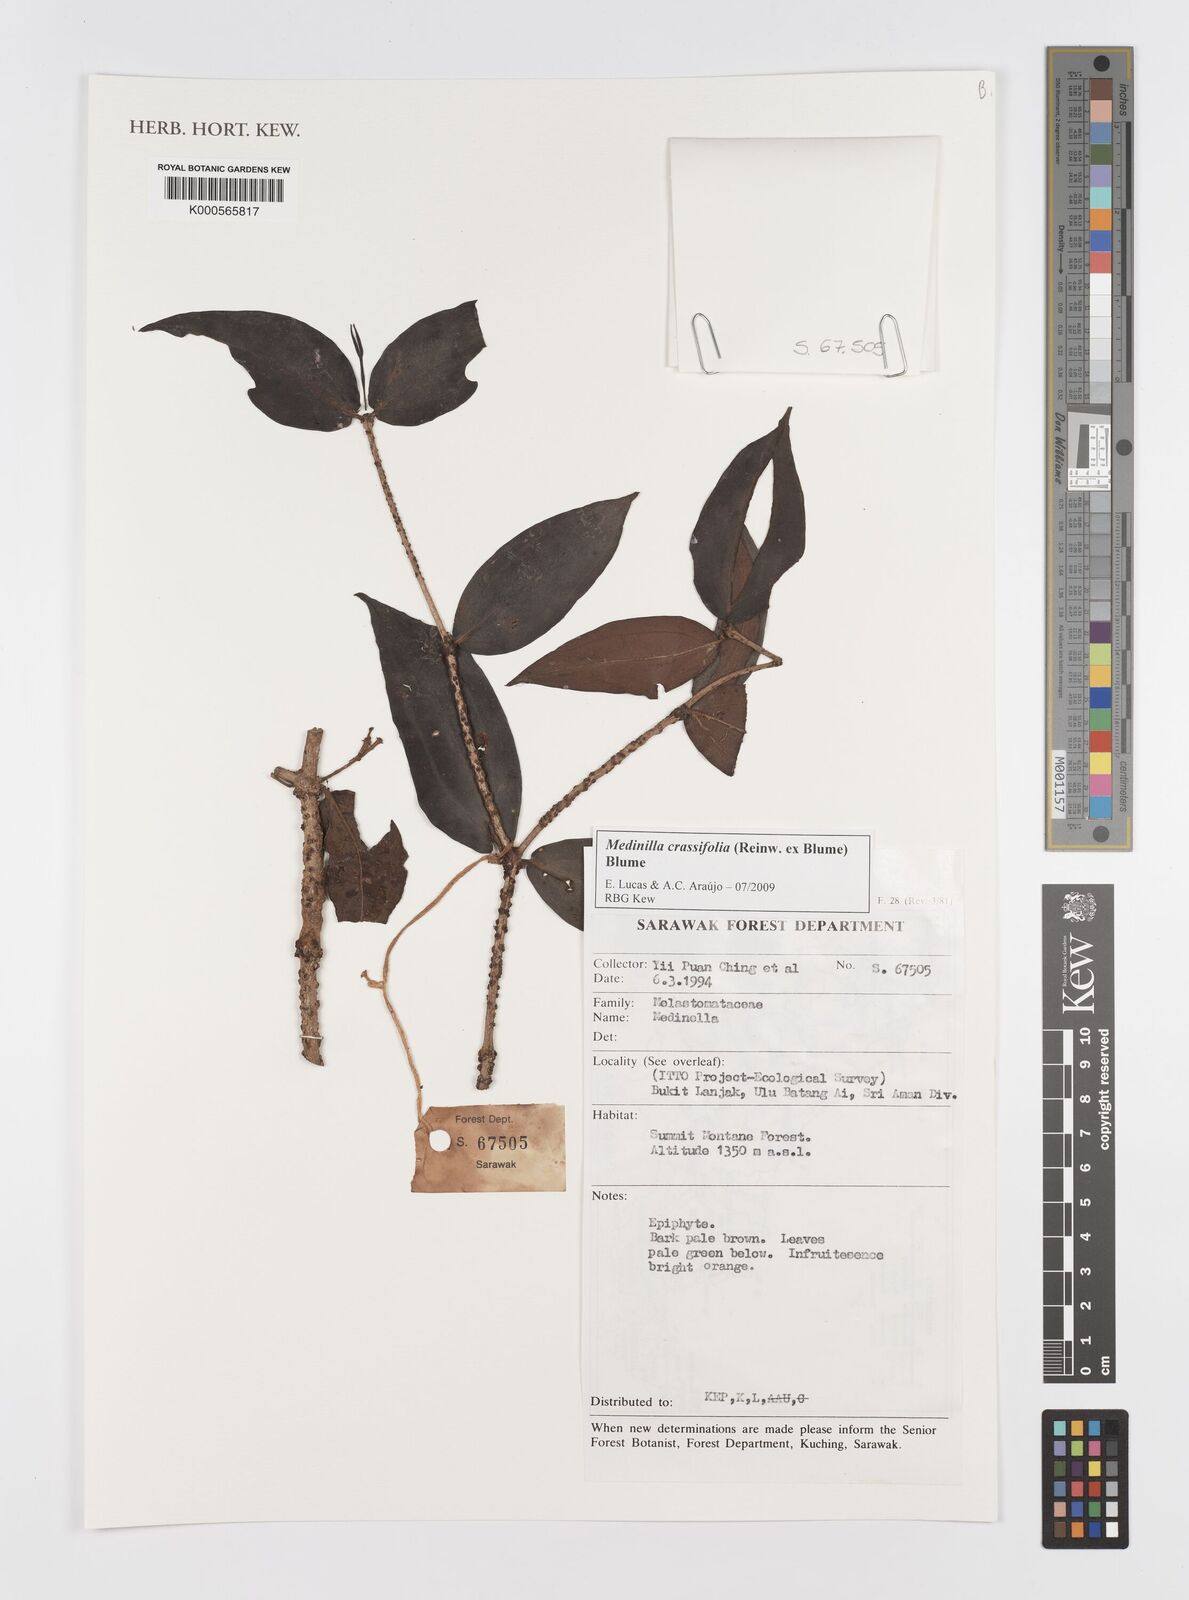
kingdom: Plantae
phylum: Tracheophyta
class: Magnoliopsida
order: Myrtales
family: Melastomataceae
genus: Medinilla
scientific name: Medinilla crassifolia
